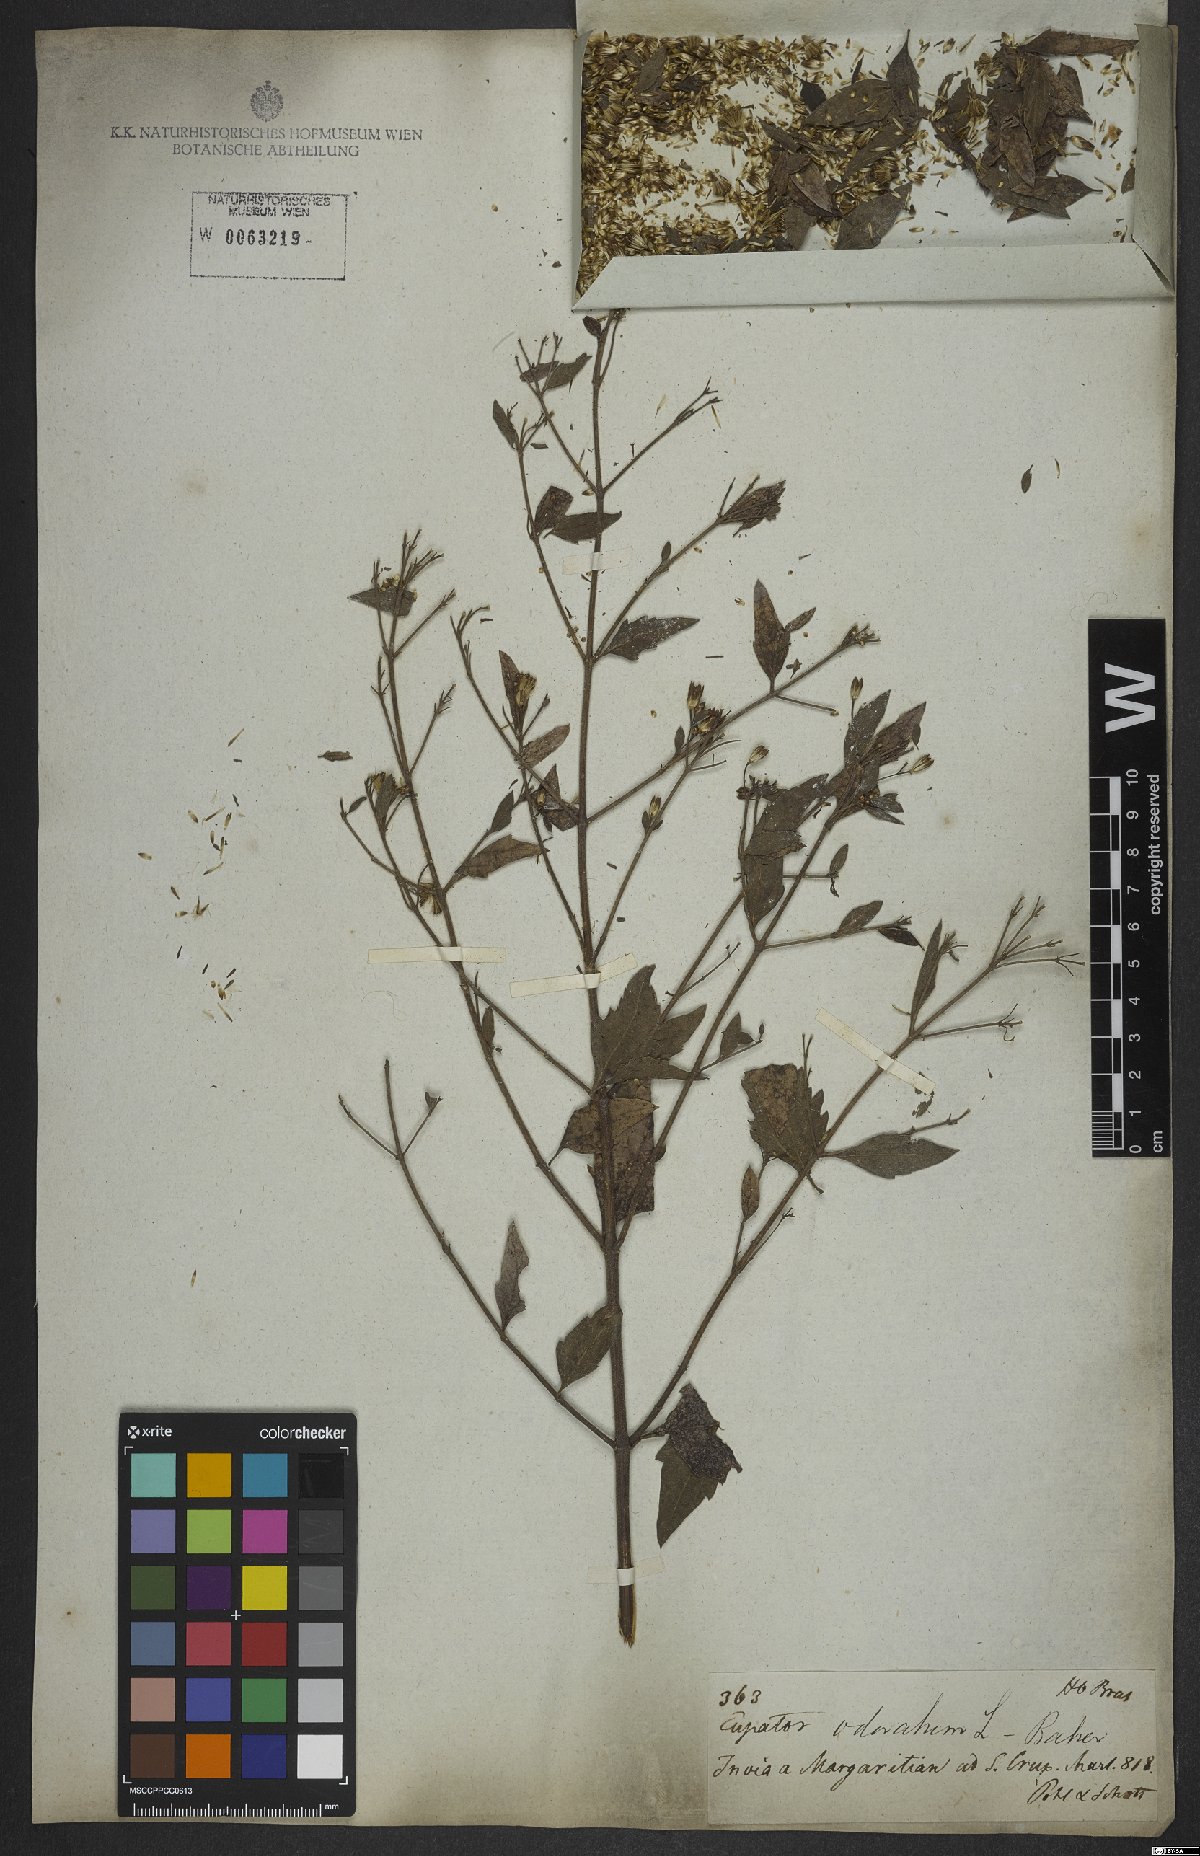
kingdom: Plantae
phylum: Tracheophyta
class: Magnoliopsida
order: Asterales
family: Asteraceae
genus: Chromolaena
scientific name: Chromolaena odorata
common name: Siamweed
